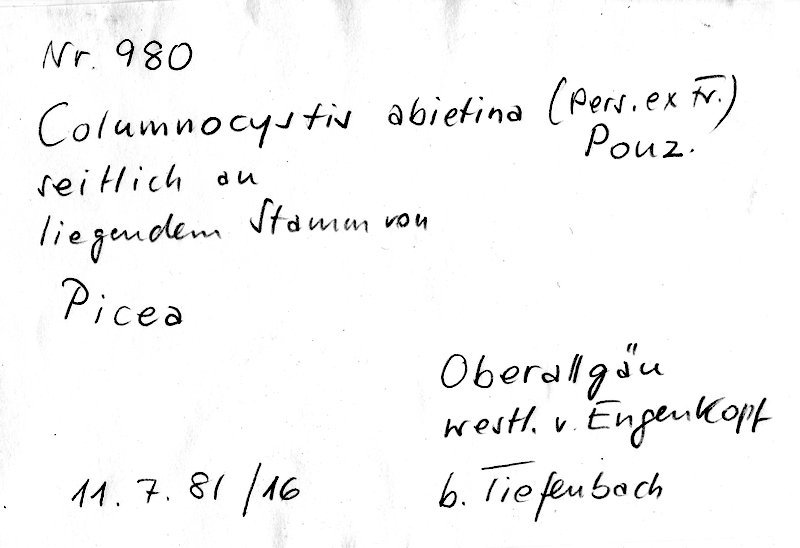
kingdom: Fungi
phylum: Basidiomycota
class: Agaricomycetes
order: Gloeophyllales
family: Gloeophyllaceae
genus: Veluticeps
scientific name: Veluticeps abietina
